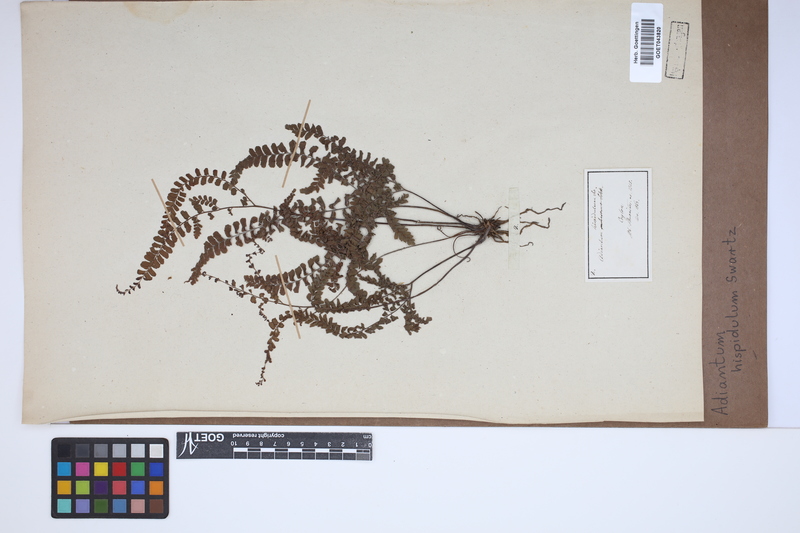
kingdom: Plantae
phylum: Tracheophyta
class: Polypodiopsida
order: Polypodiales
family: Pteridaceae
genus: Adiantum
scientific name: Adiantum hispidulum
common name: Rough maidenhair
